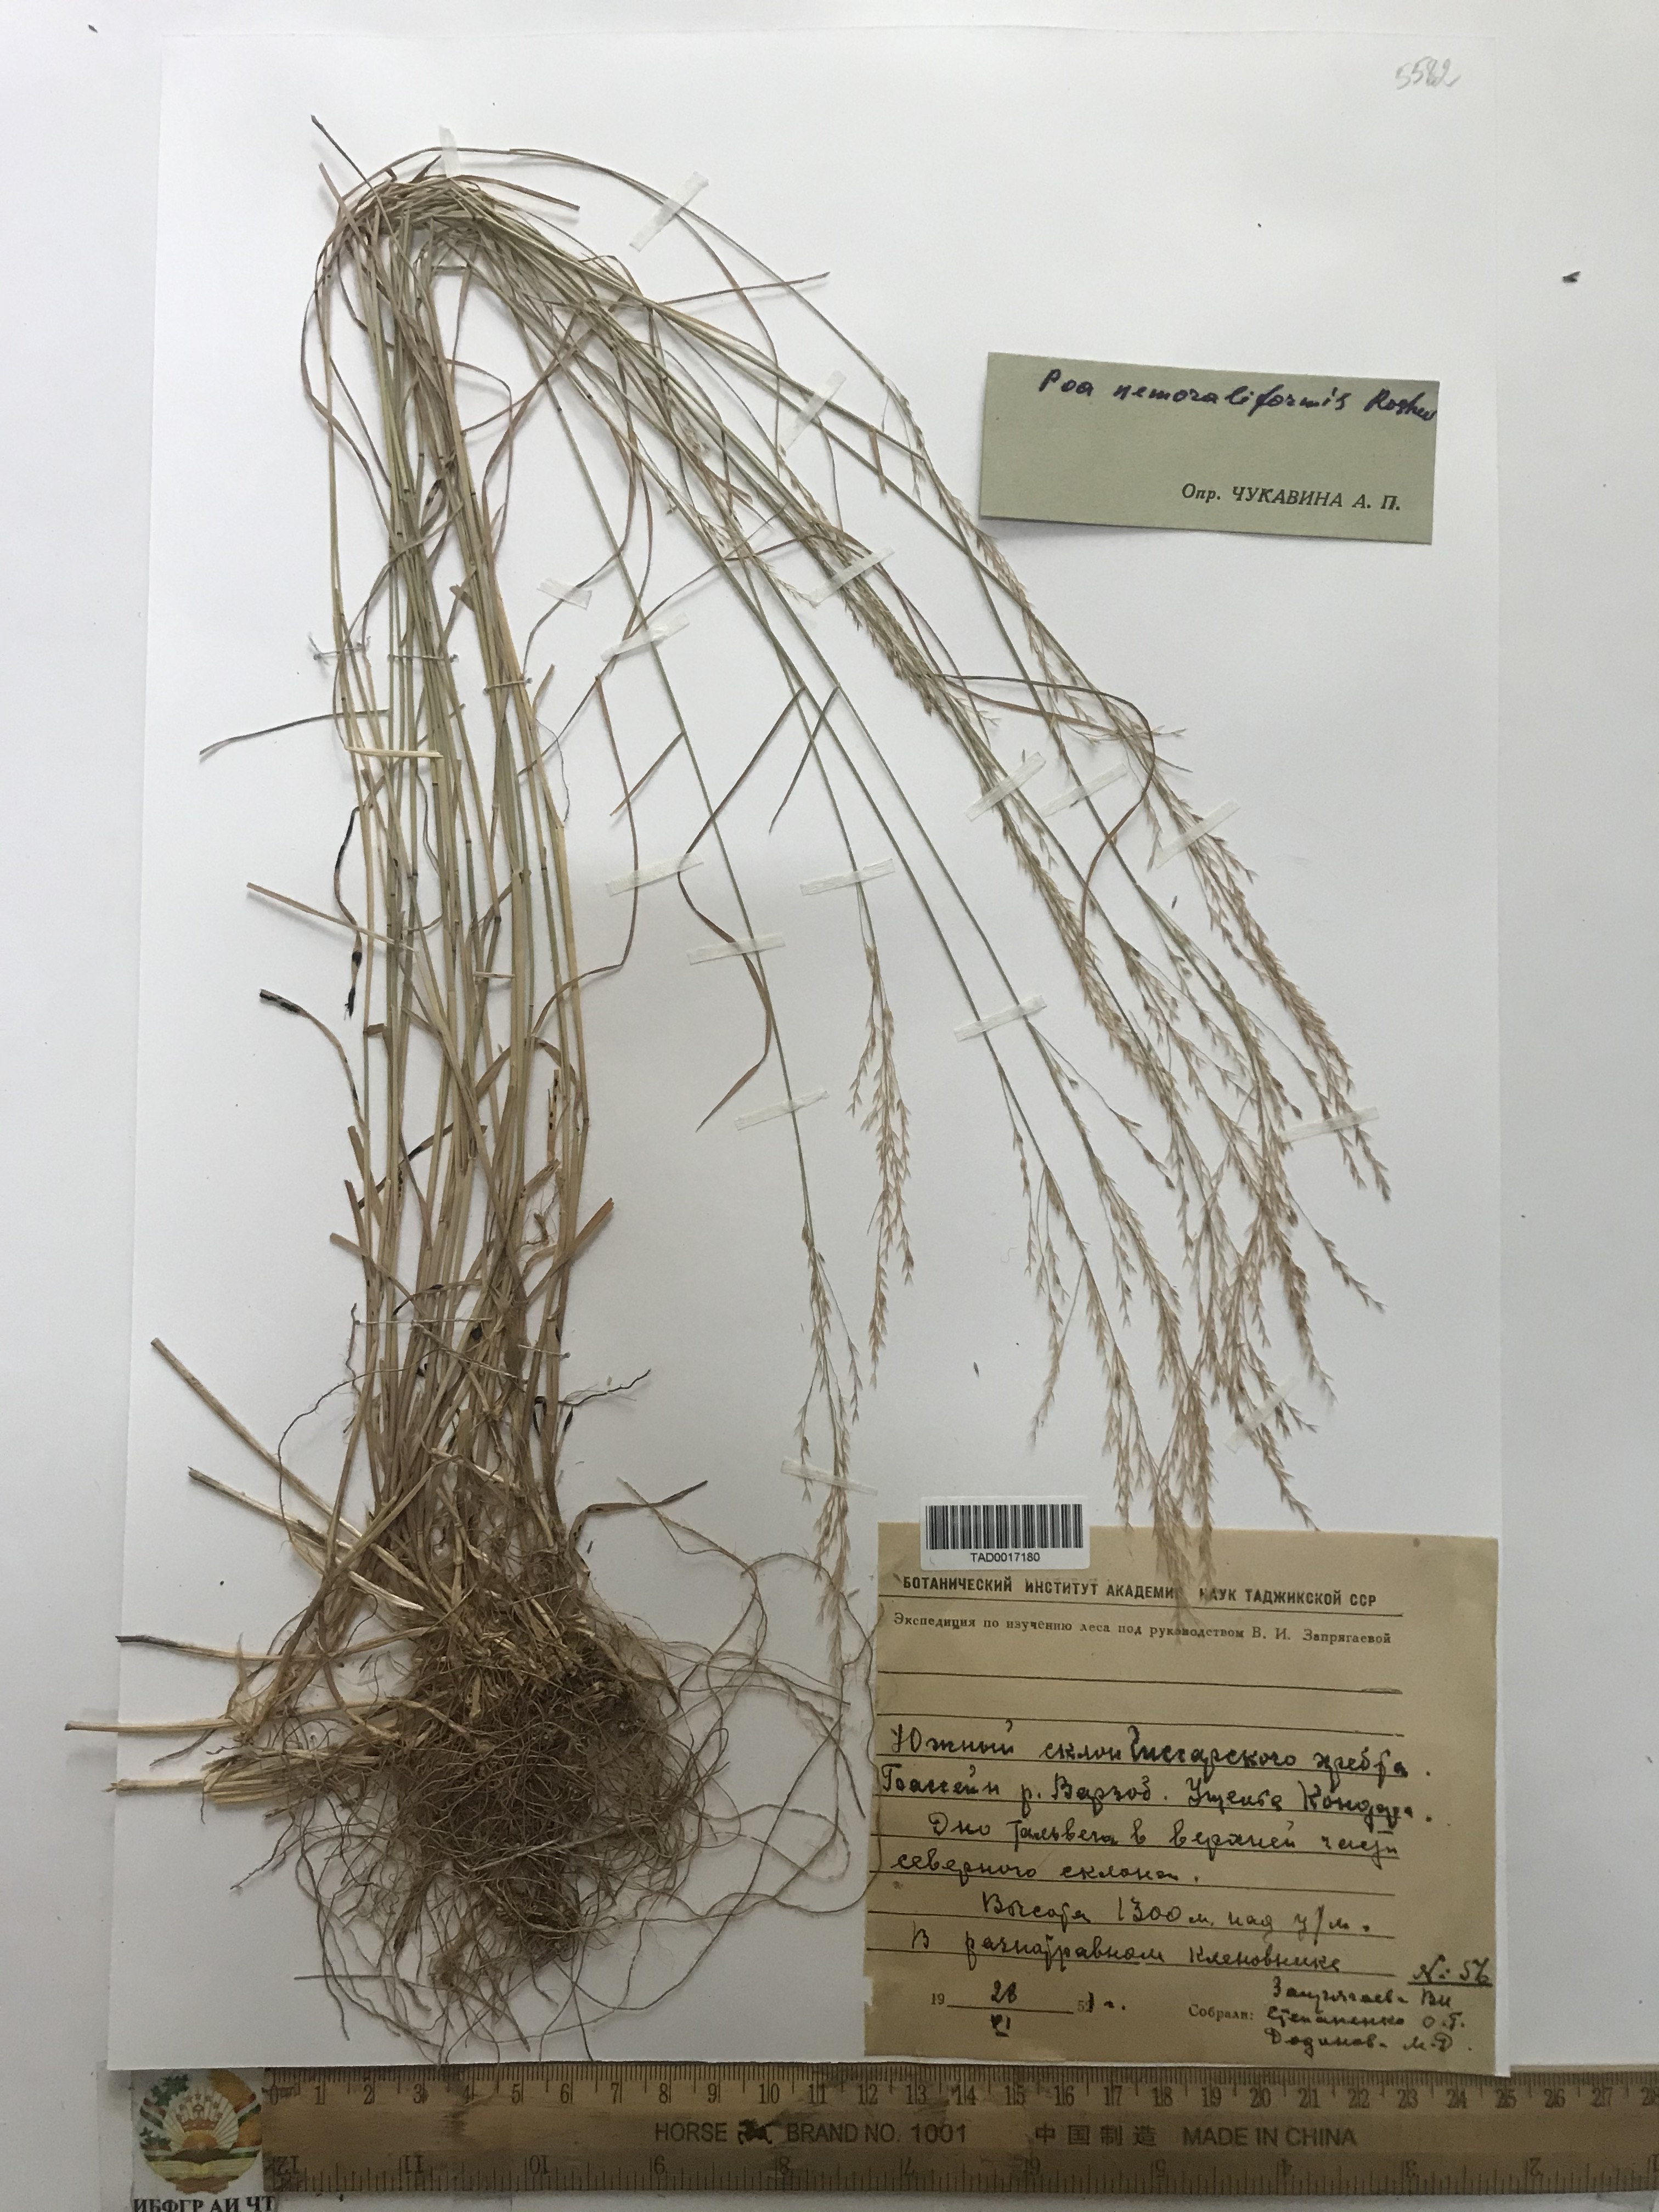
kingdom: Plantae
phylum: Tracheophyta
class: Liliopsida
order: Poales
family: Poaceae
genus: Poa
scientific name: Poa urssulensis
